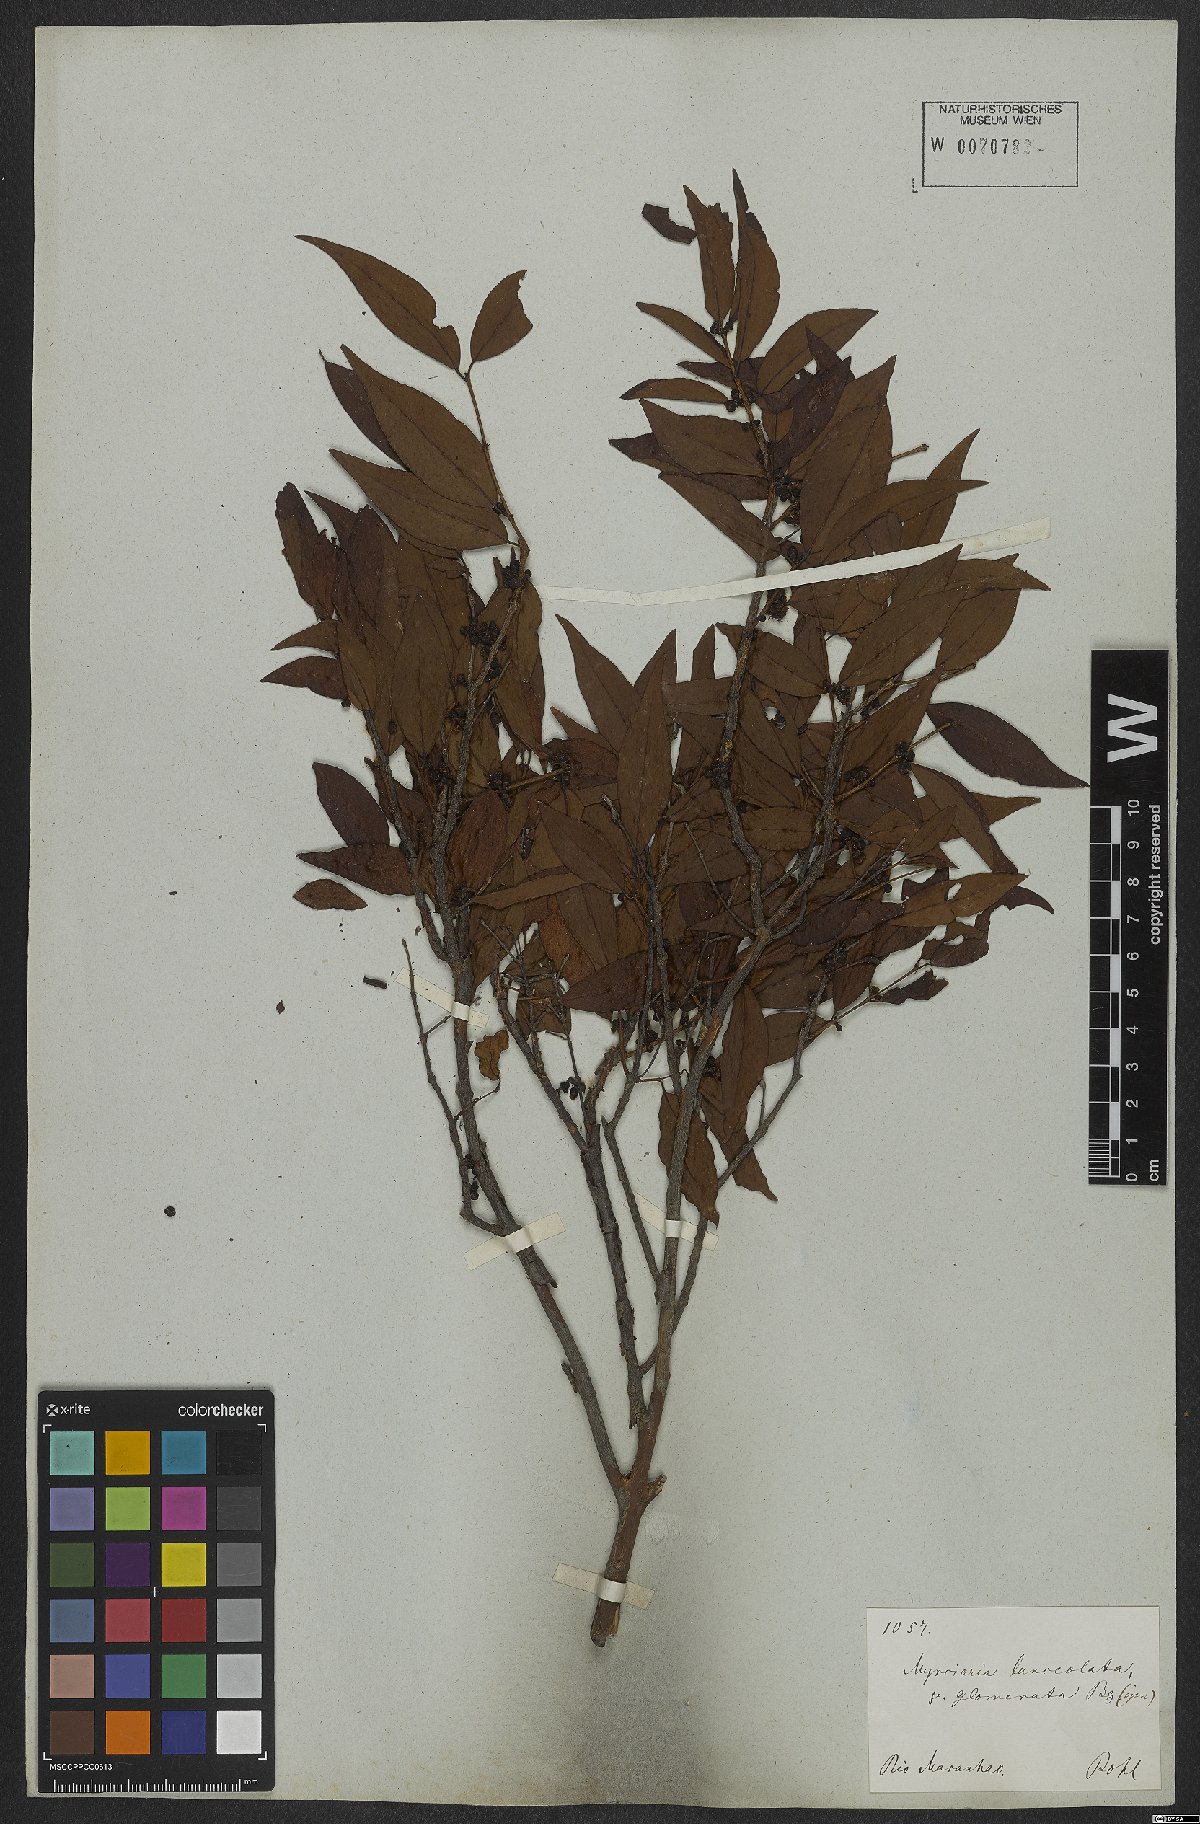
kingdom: Plantae
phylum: Tracheophyta
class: Magnoliopsida
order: Myrtales
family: Myrtaceae
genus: Myrciaria
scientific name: Myrciaria dubia
